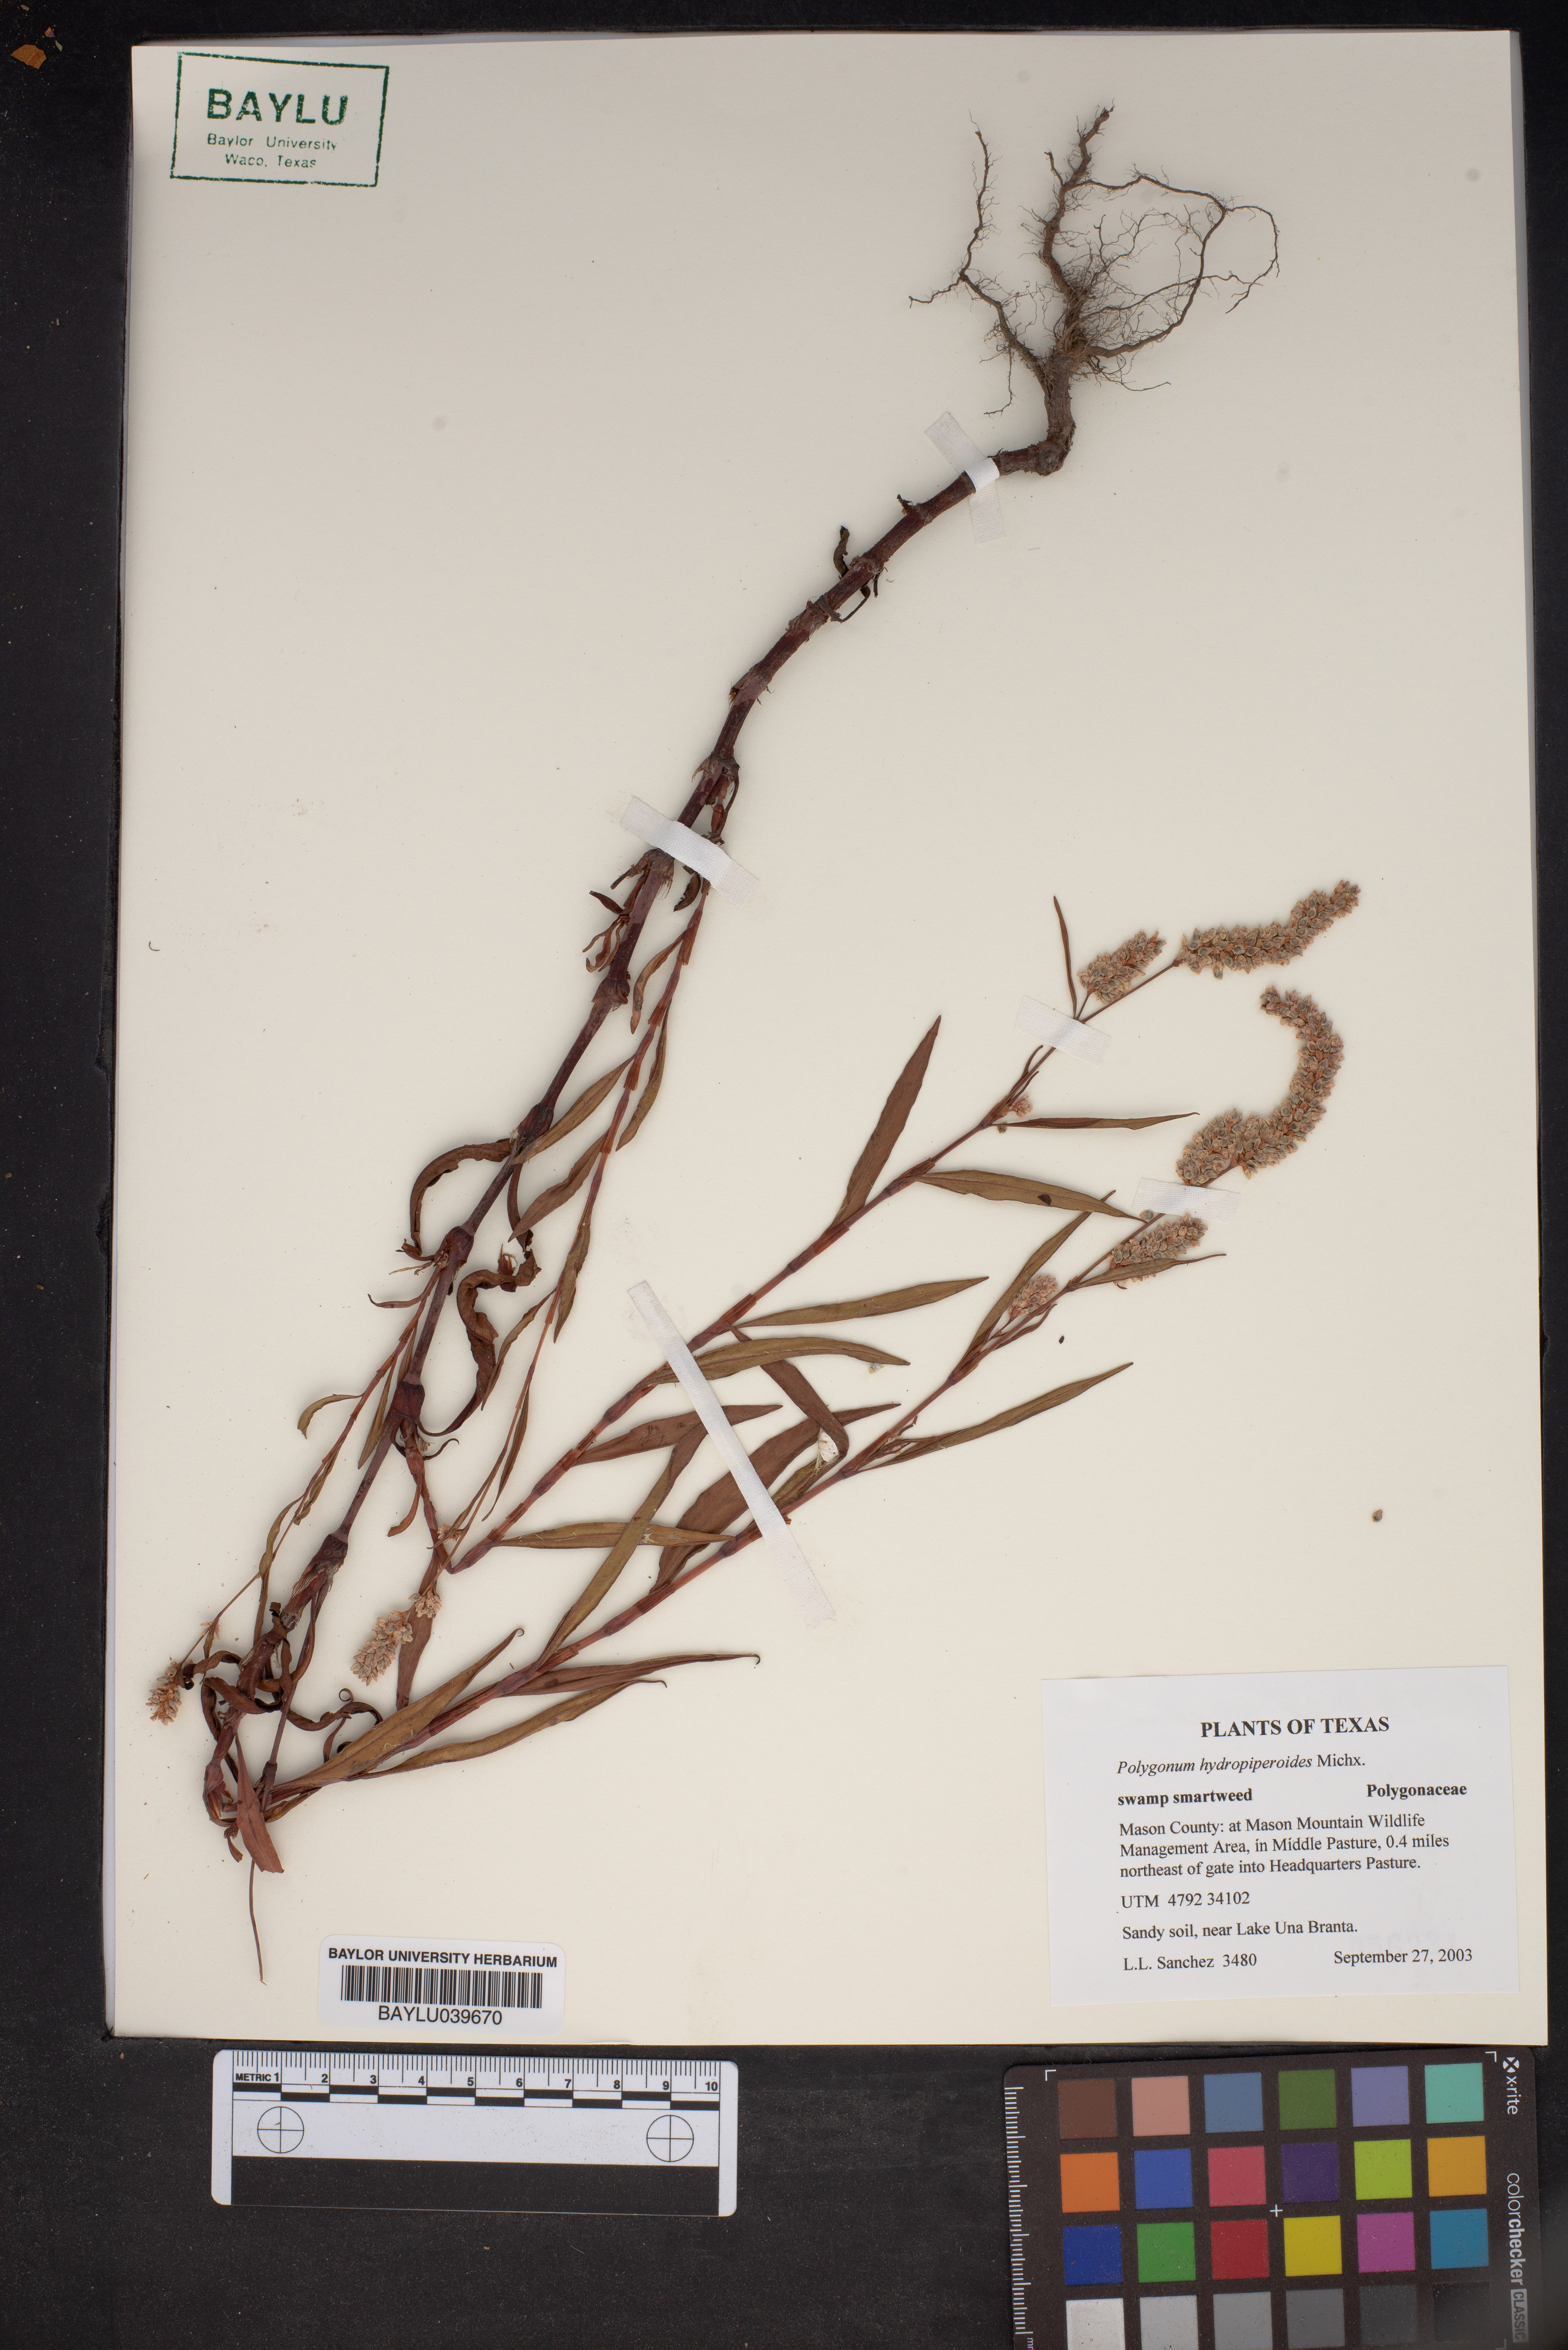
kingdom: Plantae
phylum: Tracheophyta
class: Magnoliopsida
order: Caryophyllales
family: Polygonaceae
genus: Persicaria
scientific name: Persicaria hydropiperoides
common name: Swamp smartweed
